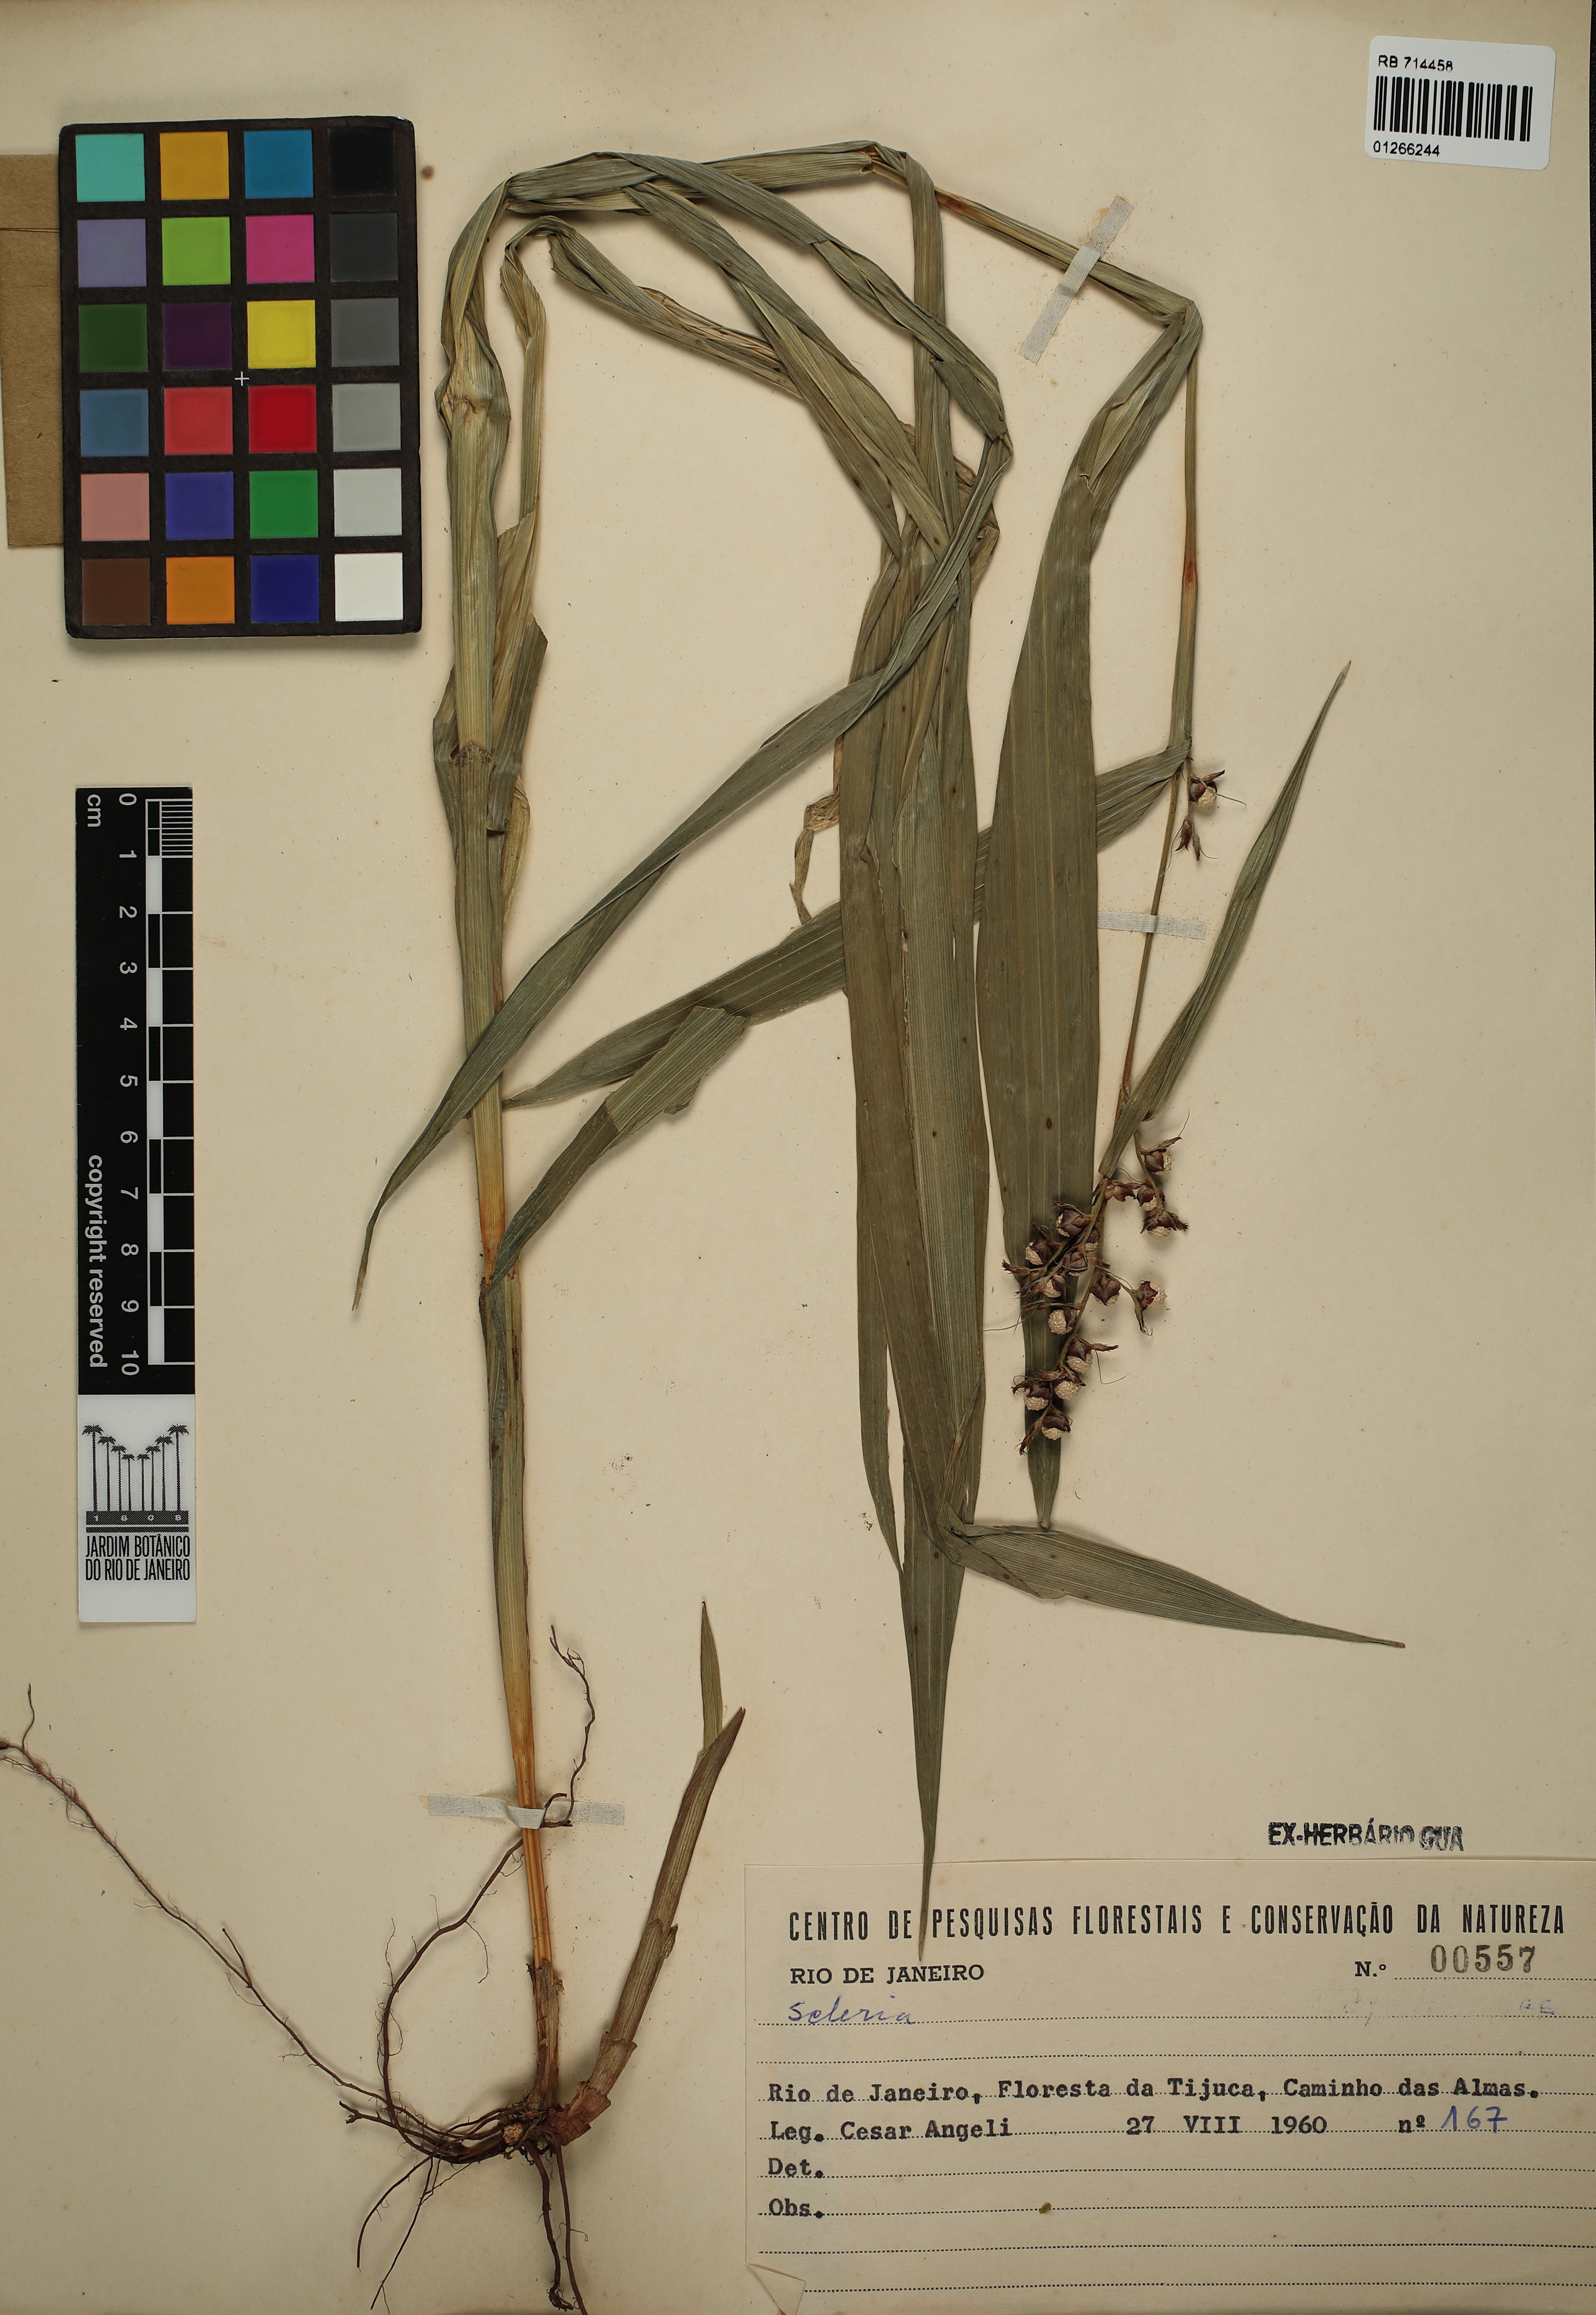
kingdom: Plantae
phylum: Tracheophyta
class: Liliopsida
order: Poales
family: Cyperaceae
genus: Scleria
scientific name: Scleria
